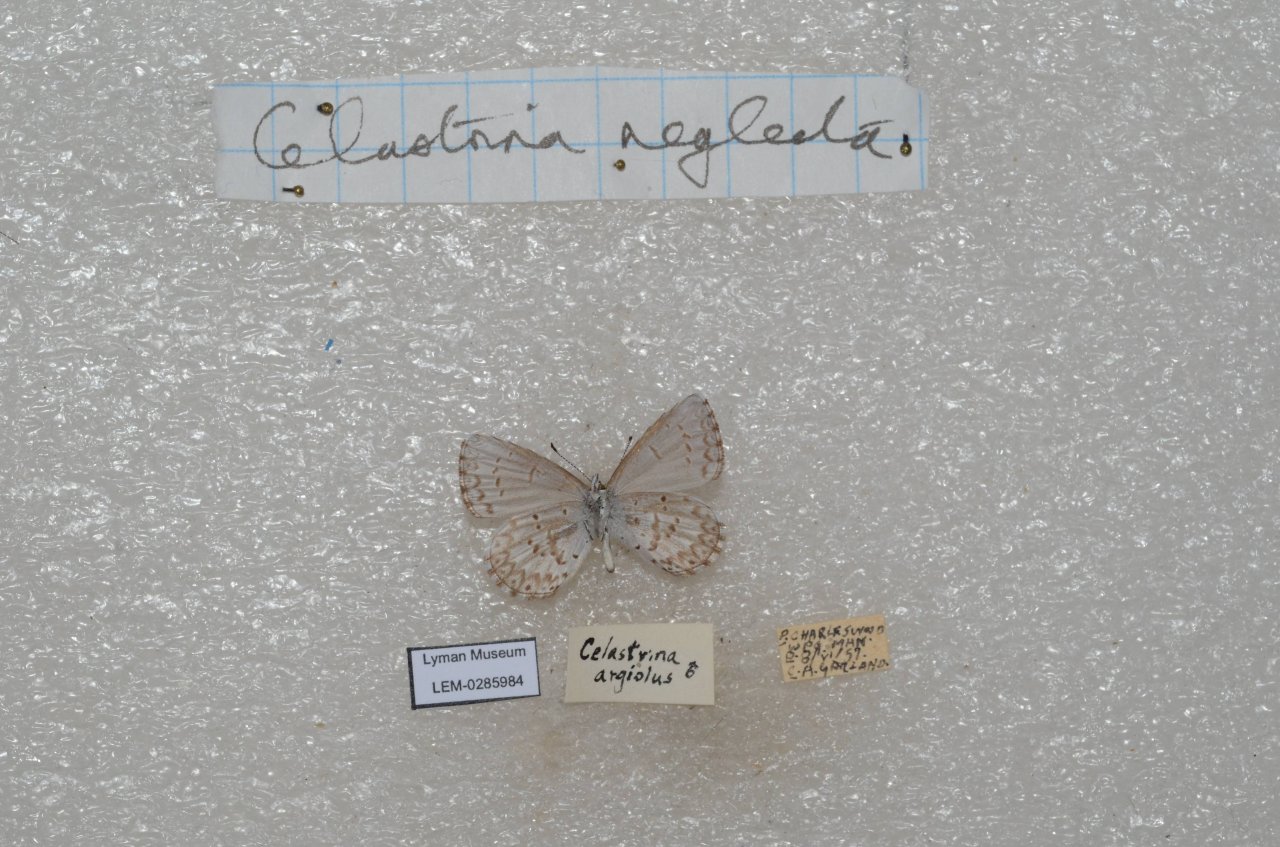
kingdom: Animalia
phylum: Arthropoda
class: Insecta
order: Lepidoptera
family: Lycaenidae
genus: Celastrina
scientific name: Celastrina lucia
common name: Northern Spring Azure
